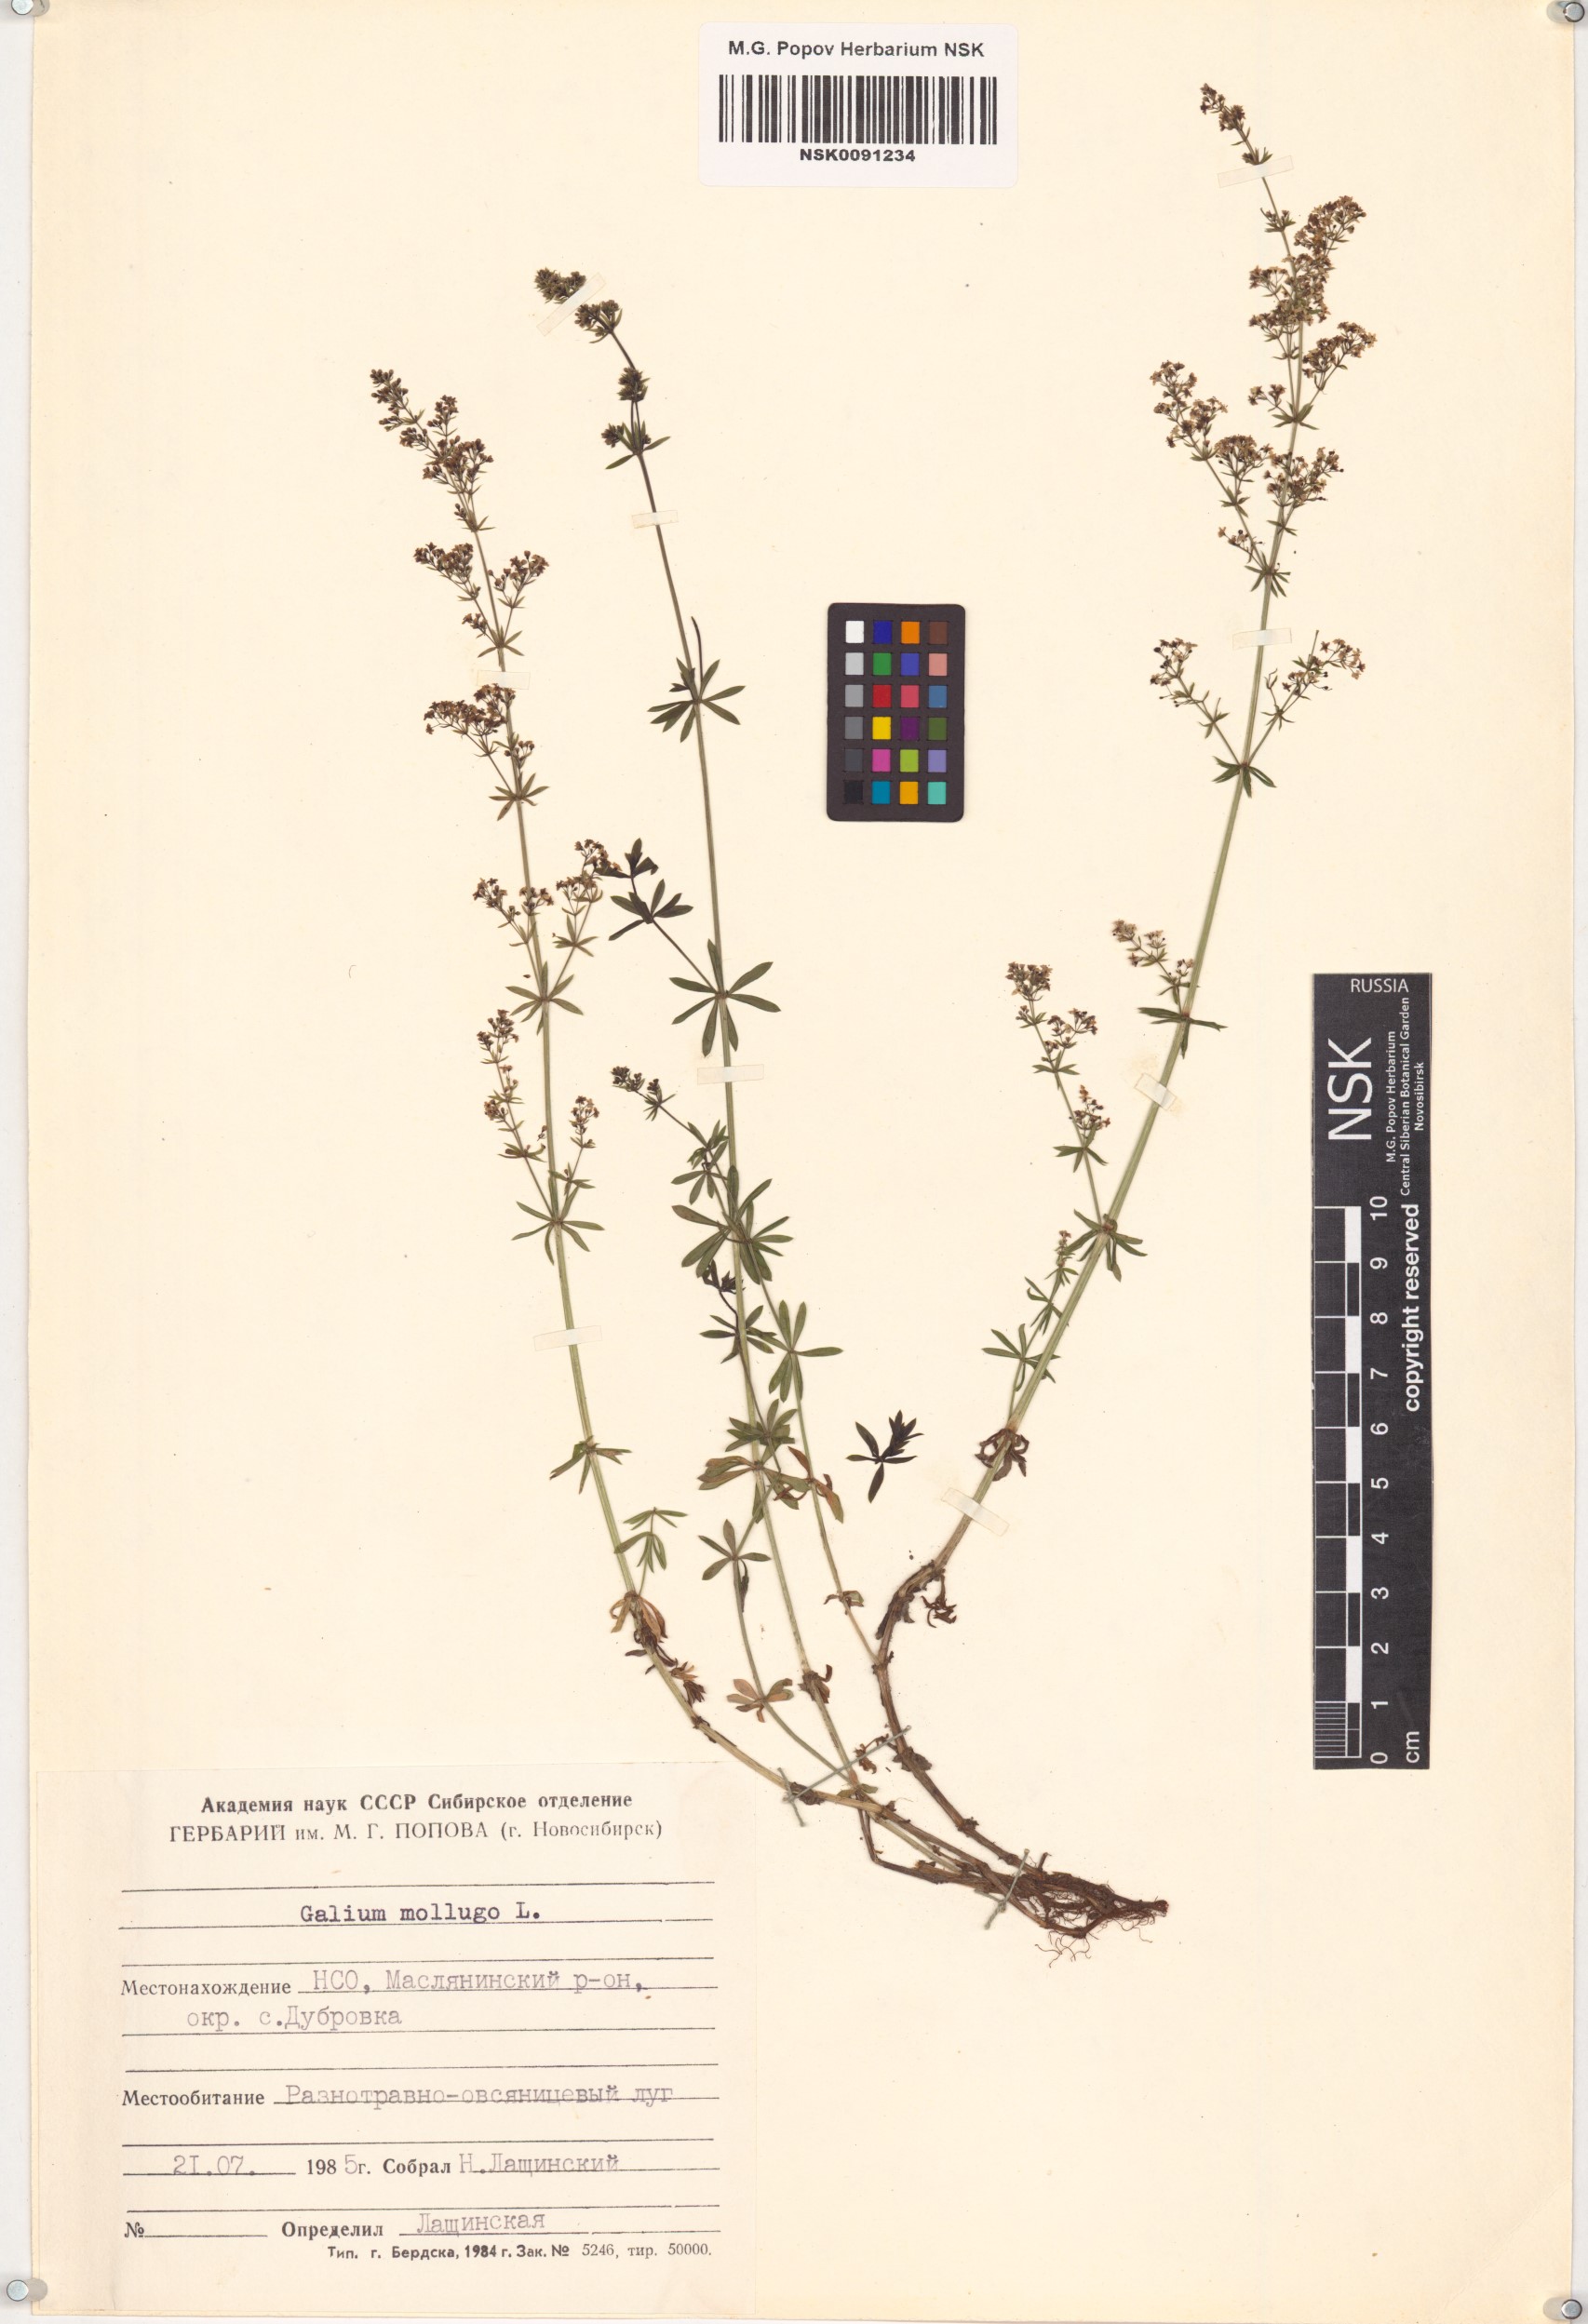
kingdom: Plantae
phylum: Tracheophyta
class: Magnoliopsida
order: Gentianales
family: Rubiaceae
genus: Galium
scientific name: Galium mollugo
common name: Hedge bedstraw
